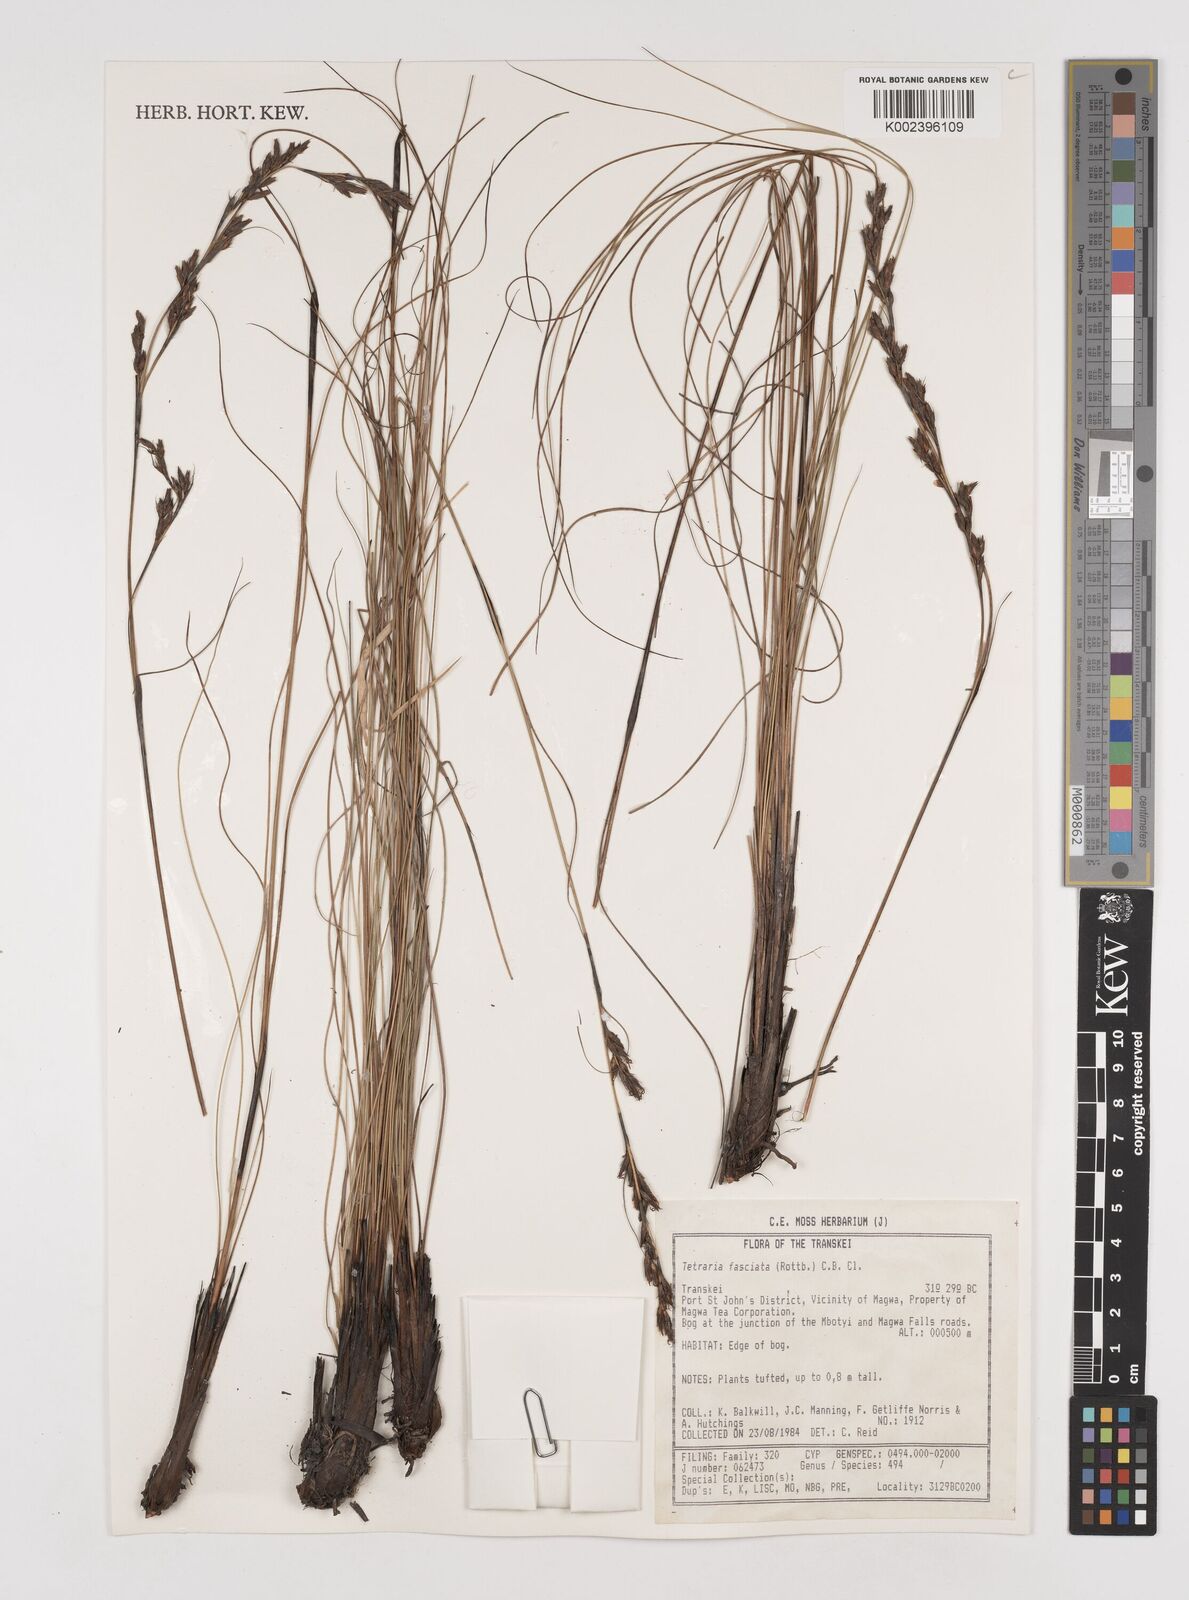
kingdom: Plantae
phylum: Tracheophyta
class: Liliopsida
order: Poales
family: Cyperaceae
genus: Tetraria
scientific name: Tetraria fasciata
